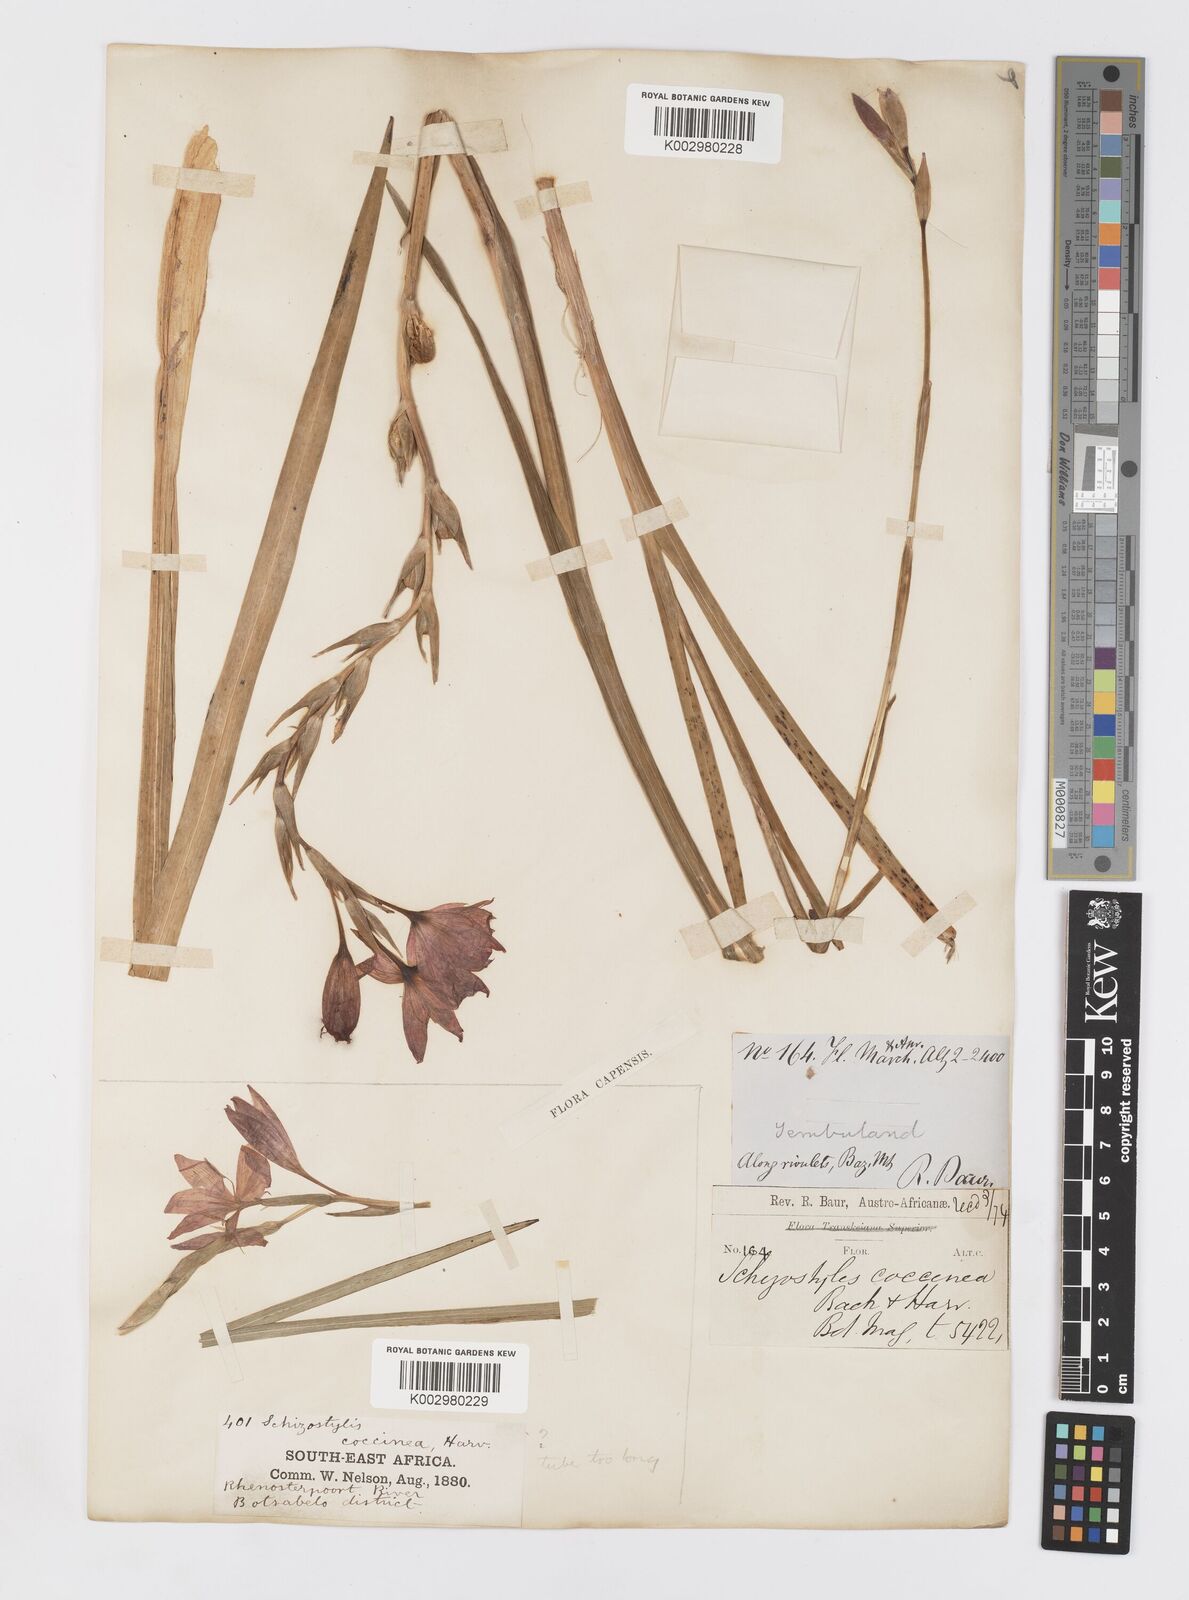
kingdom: Plantae
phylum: Tracheophyta
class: Liliopsida
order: Asparagales
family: Iridaceae
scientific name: Iridaceae
